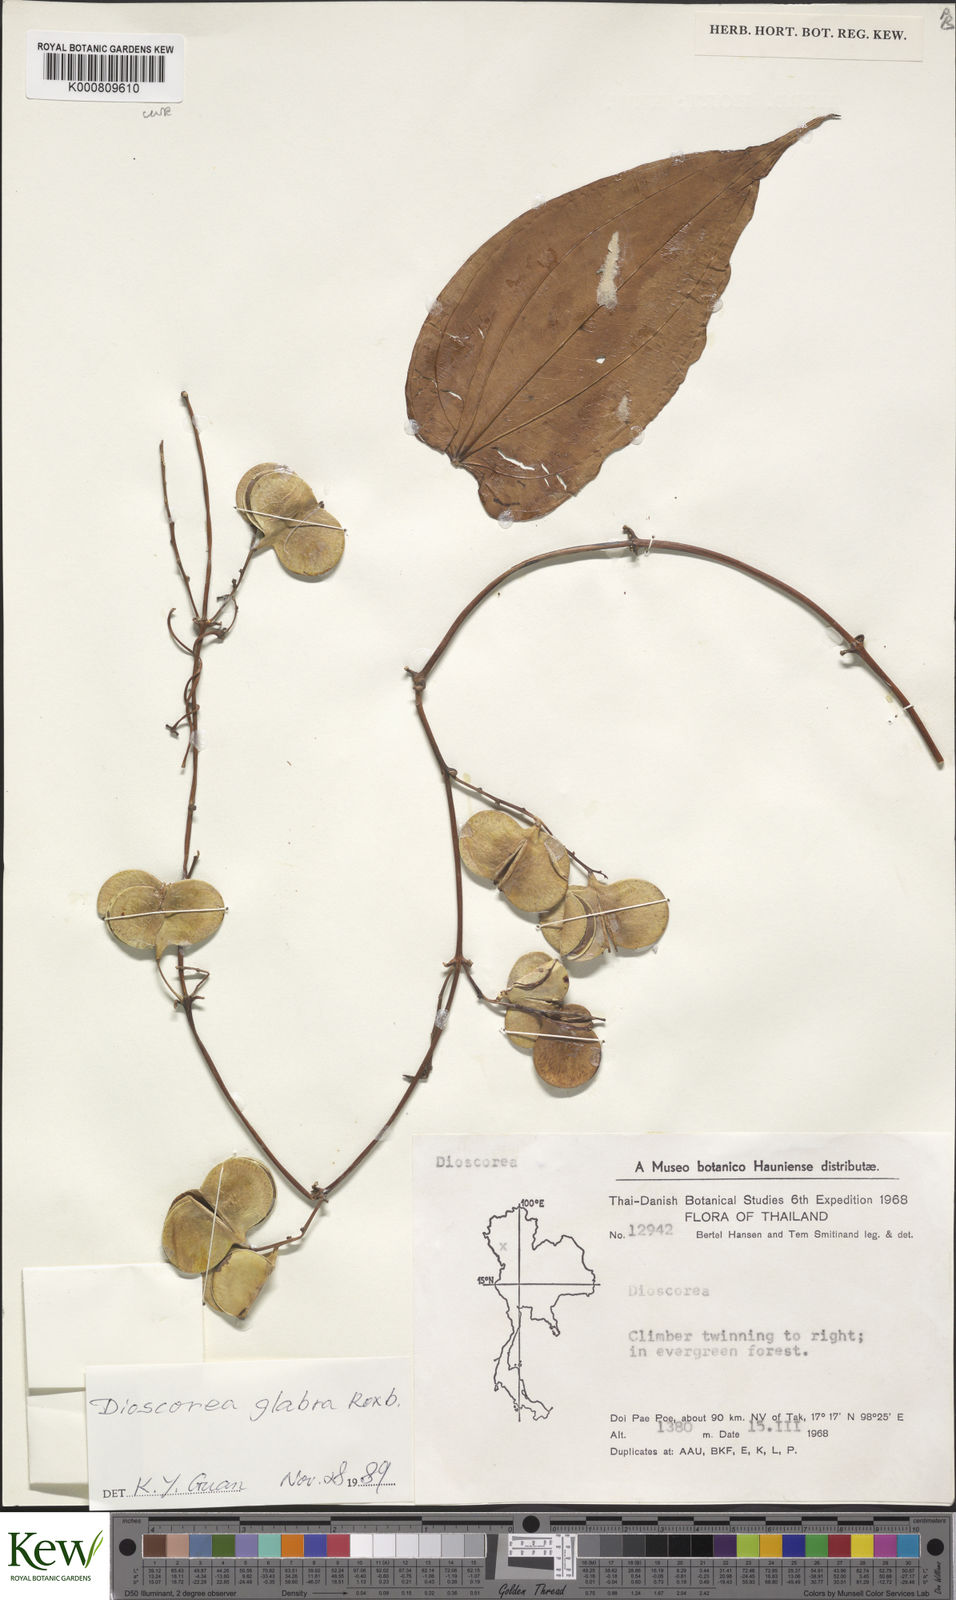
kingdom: Plantae
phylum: Tracheophyta
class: Liliopsida
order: Dioscoreales
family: Dioscoreaceae
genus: Dioscorea
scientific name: Dioscorea glabra
